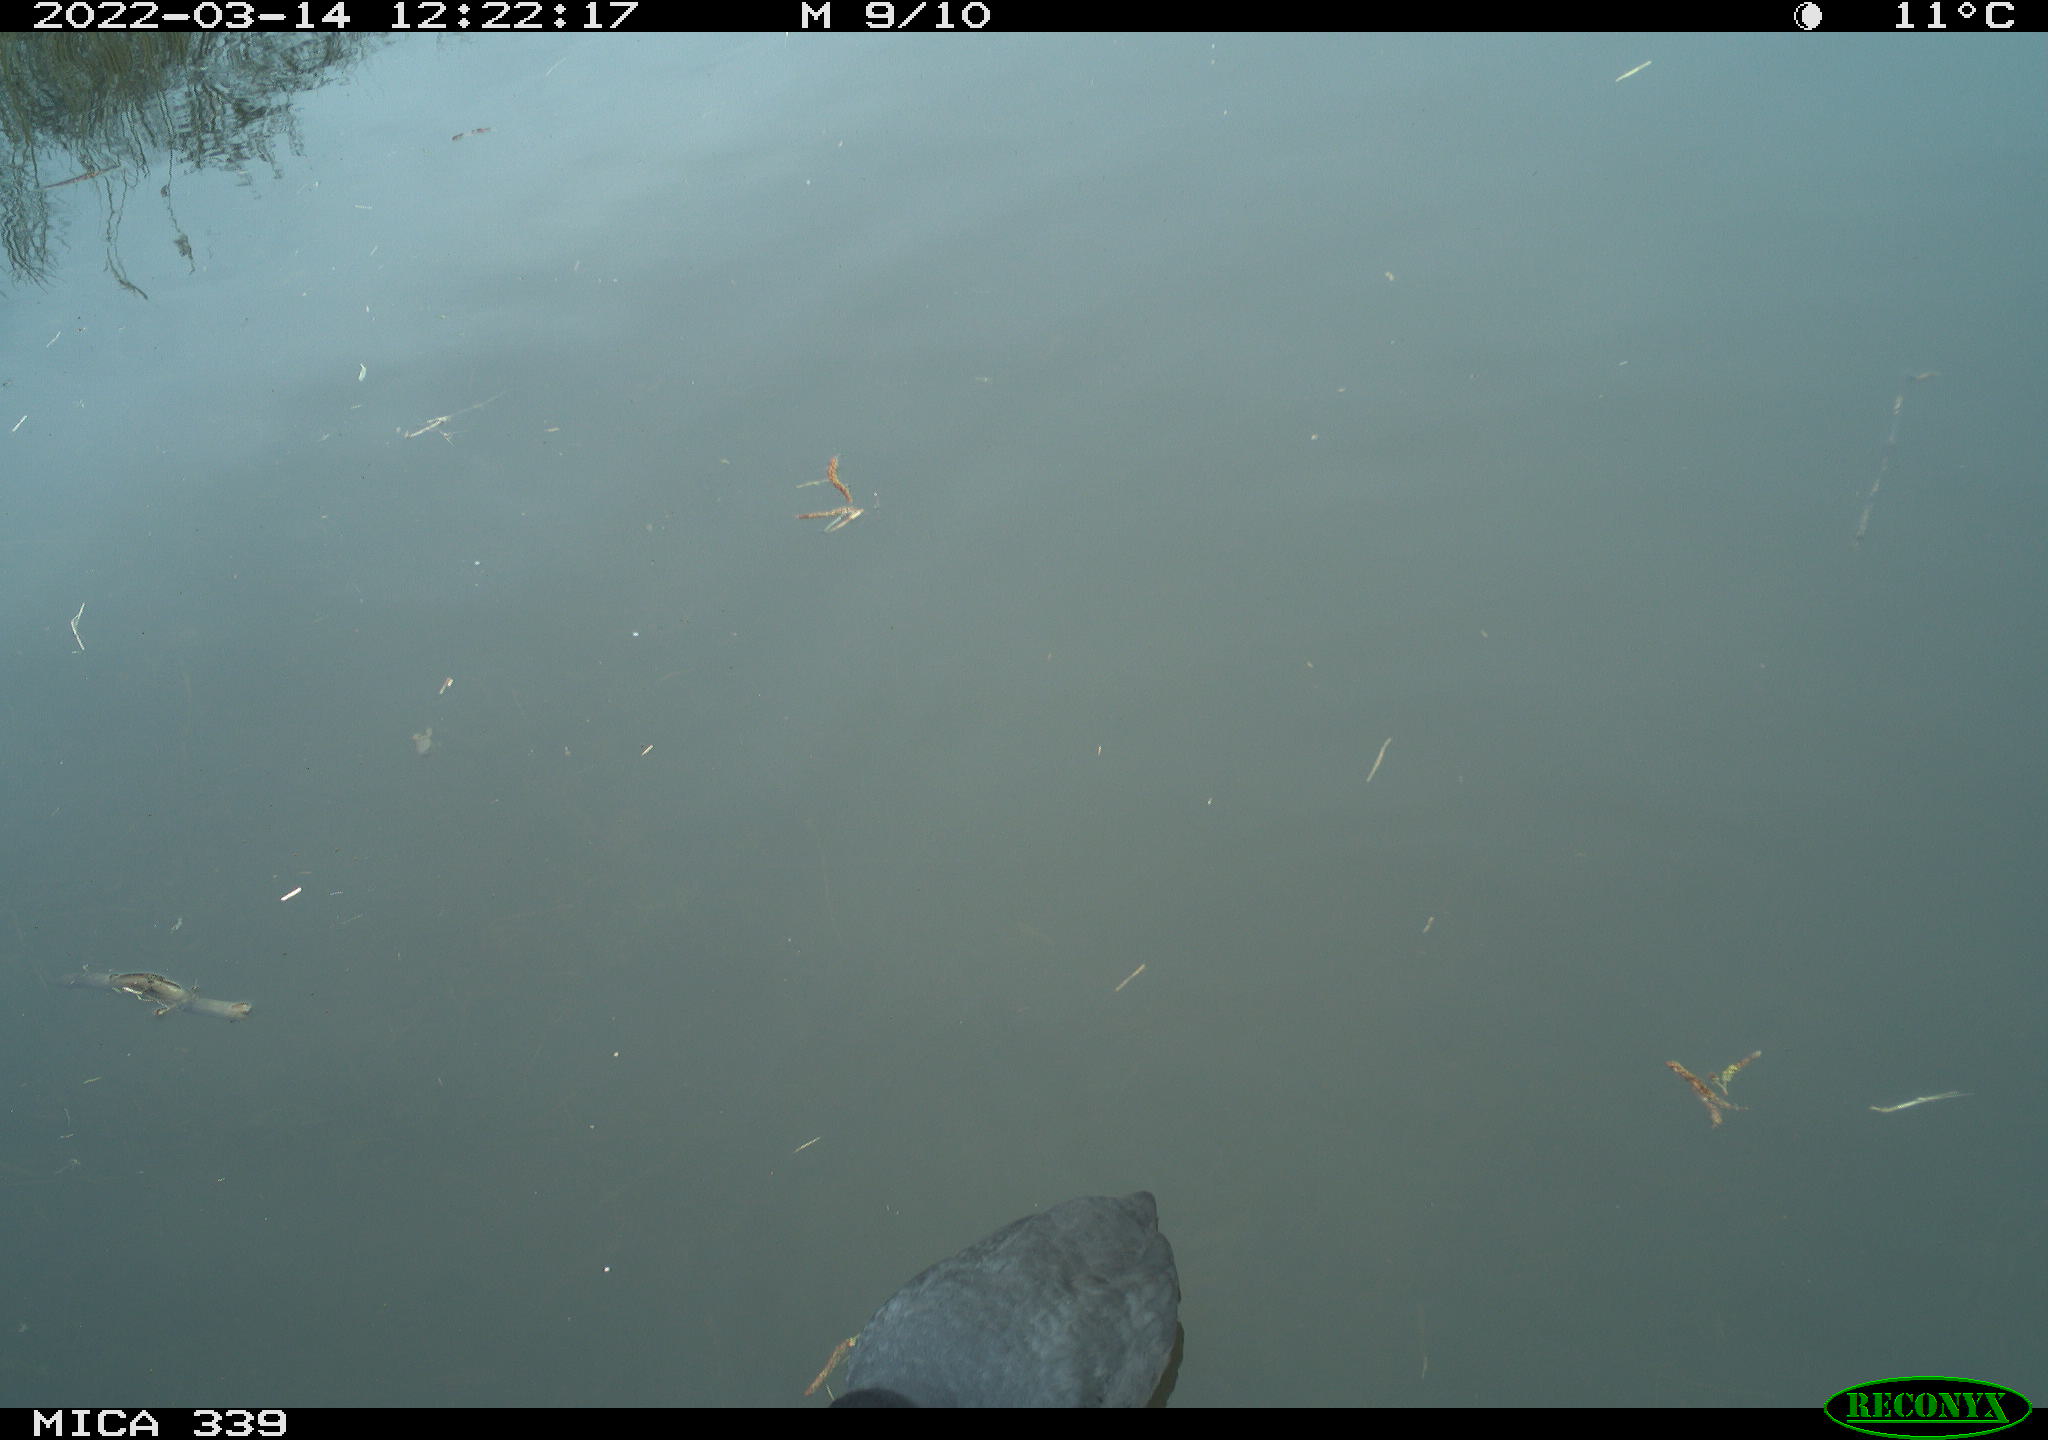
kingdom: Animalia
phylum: Chordata
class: Aves
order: Gruiformes
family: Rallidae
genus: Fulica
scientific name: Fulica atra
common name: Eurasian coot
